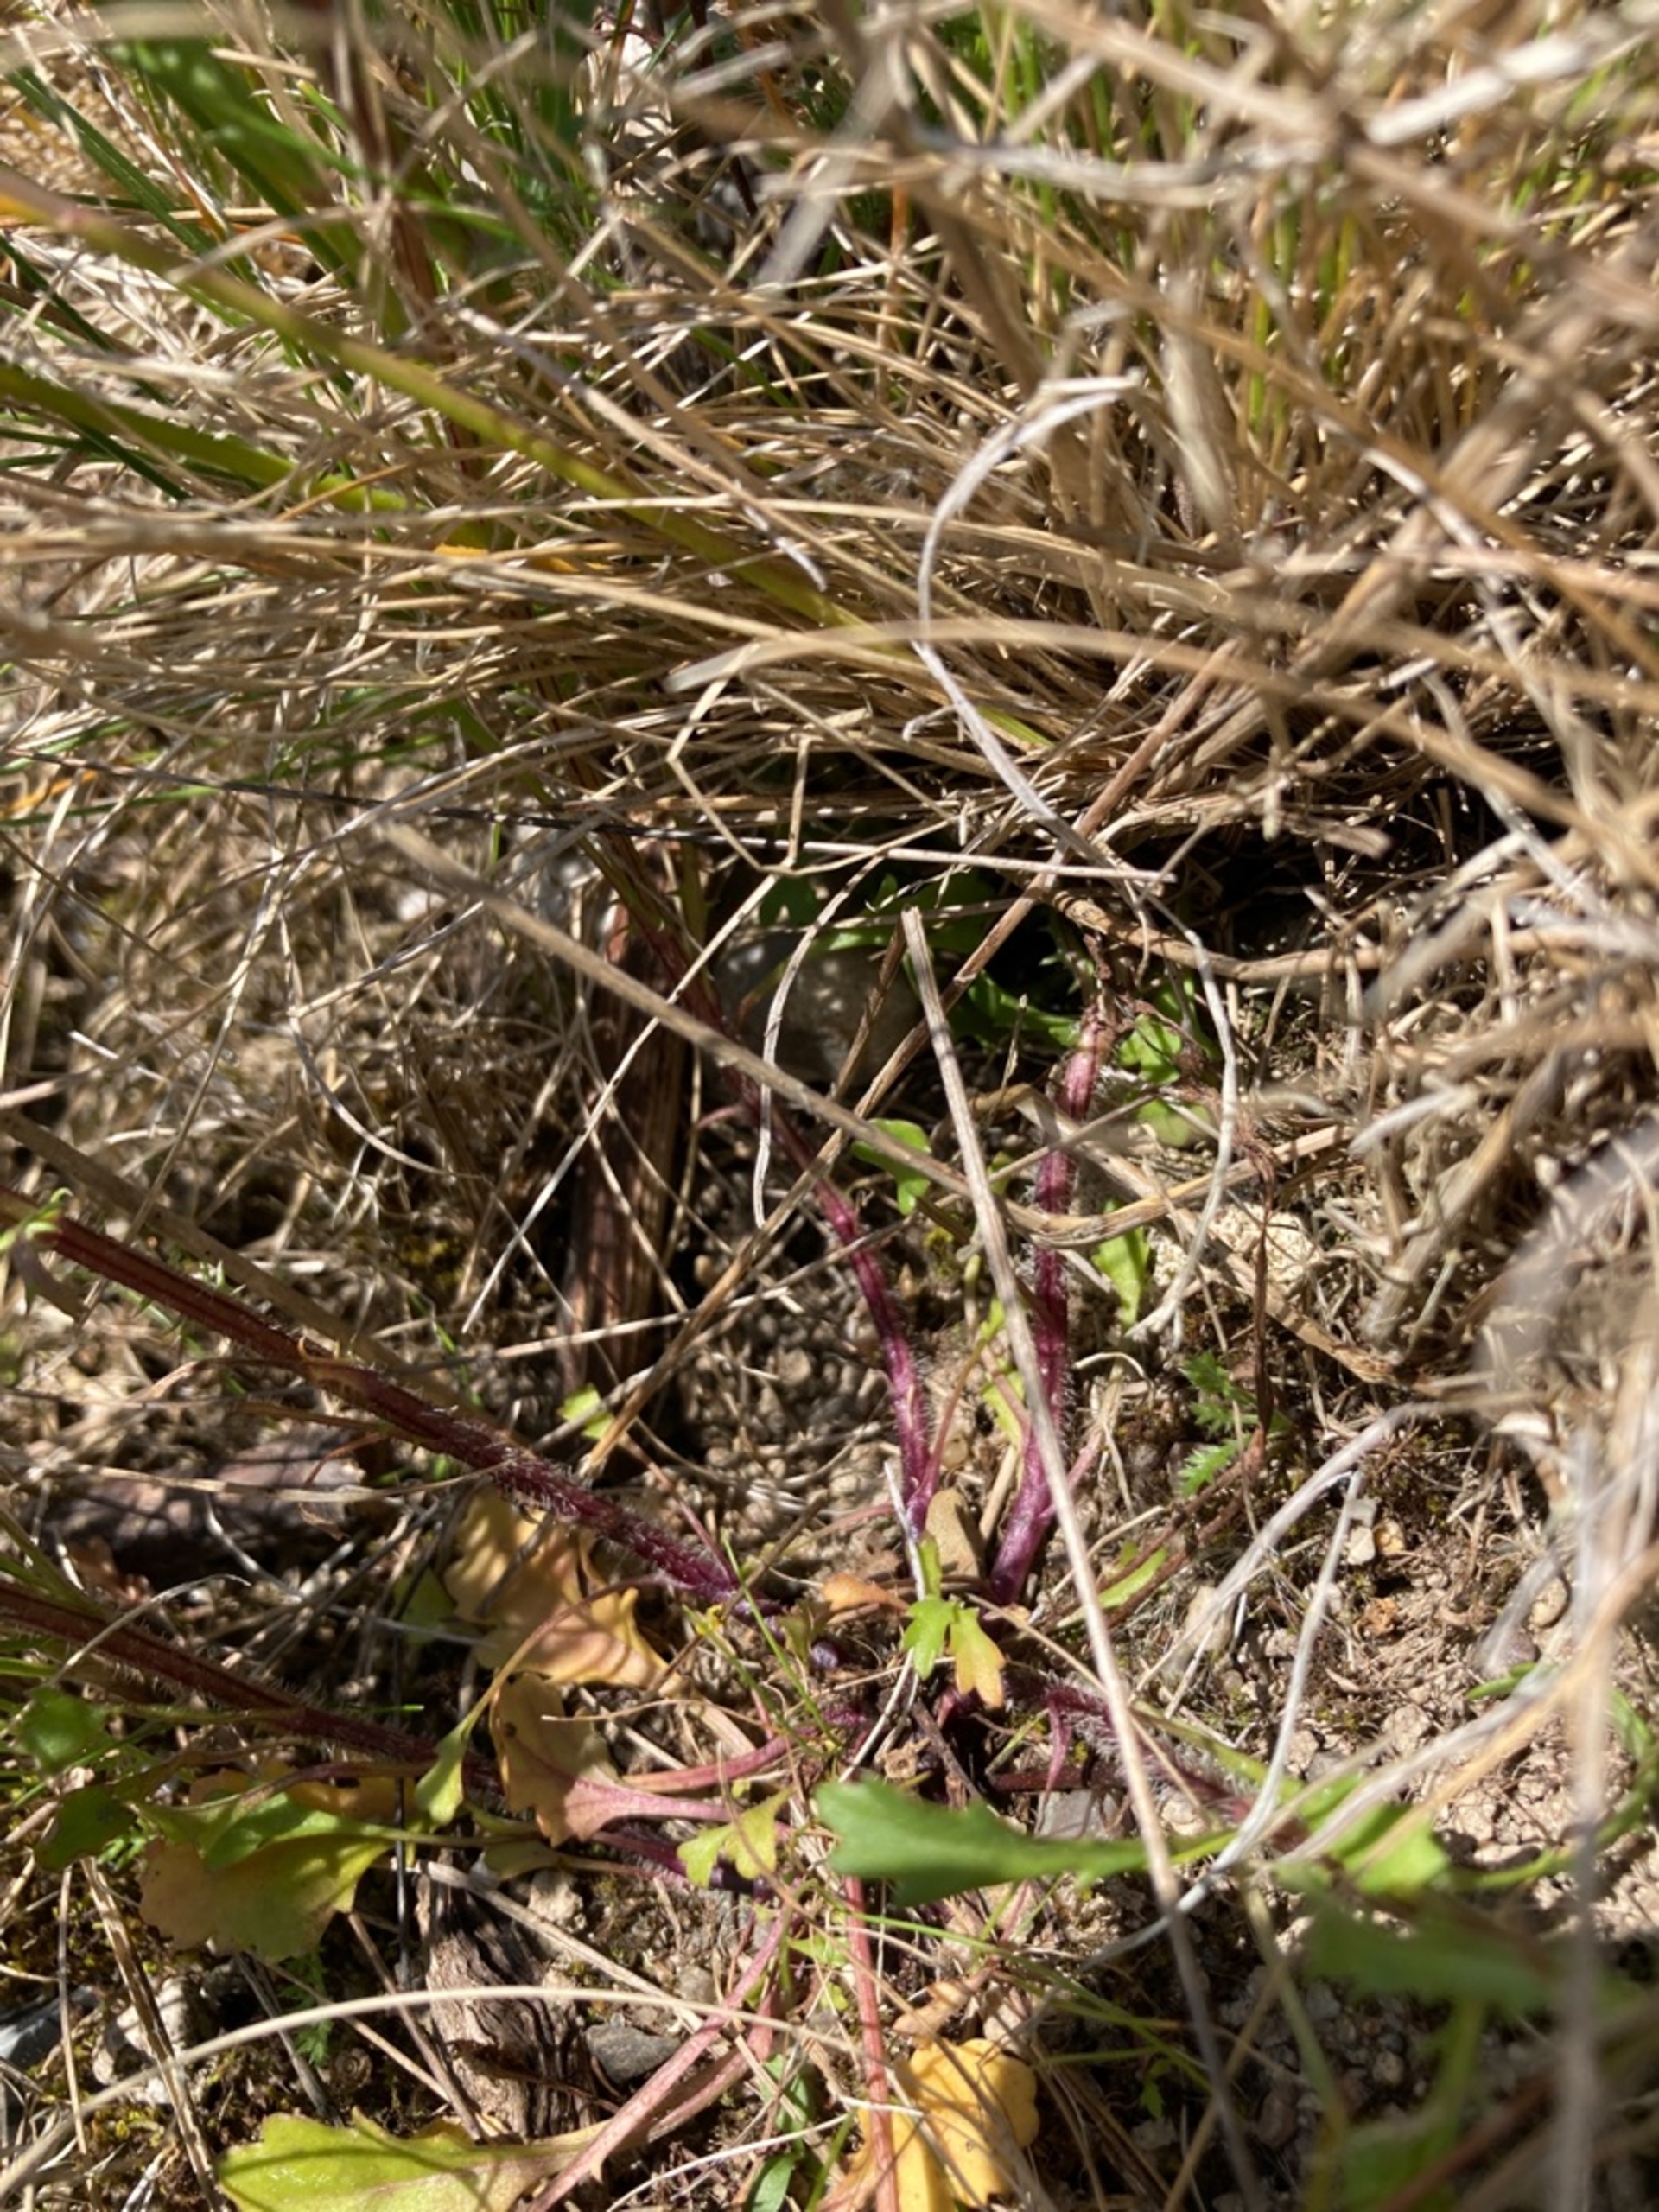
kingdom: Plantae
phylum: Tracheophyta
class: Magnoliopsida
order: Asterales
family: Asteraceae
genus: Leucanthemum
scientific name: Leucanthemum vulgare
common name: Hvid okseøje
